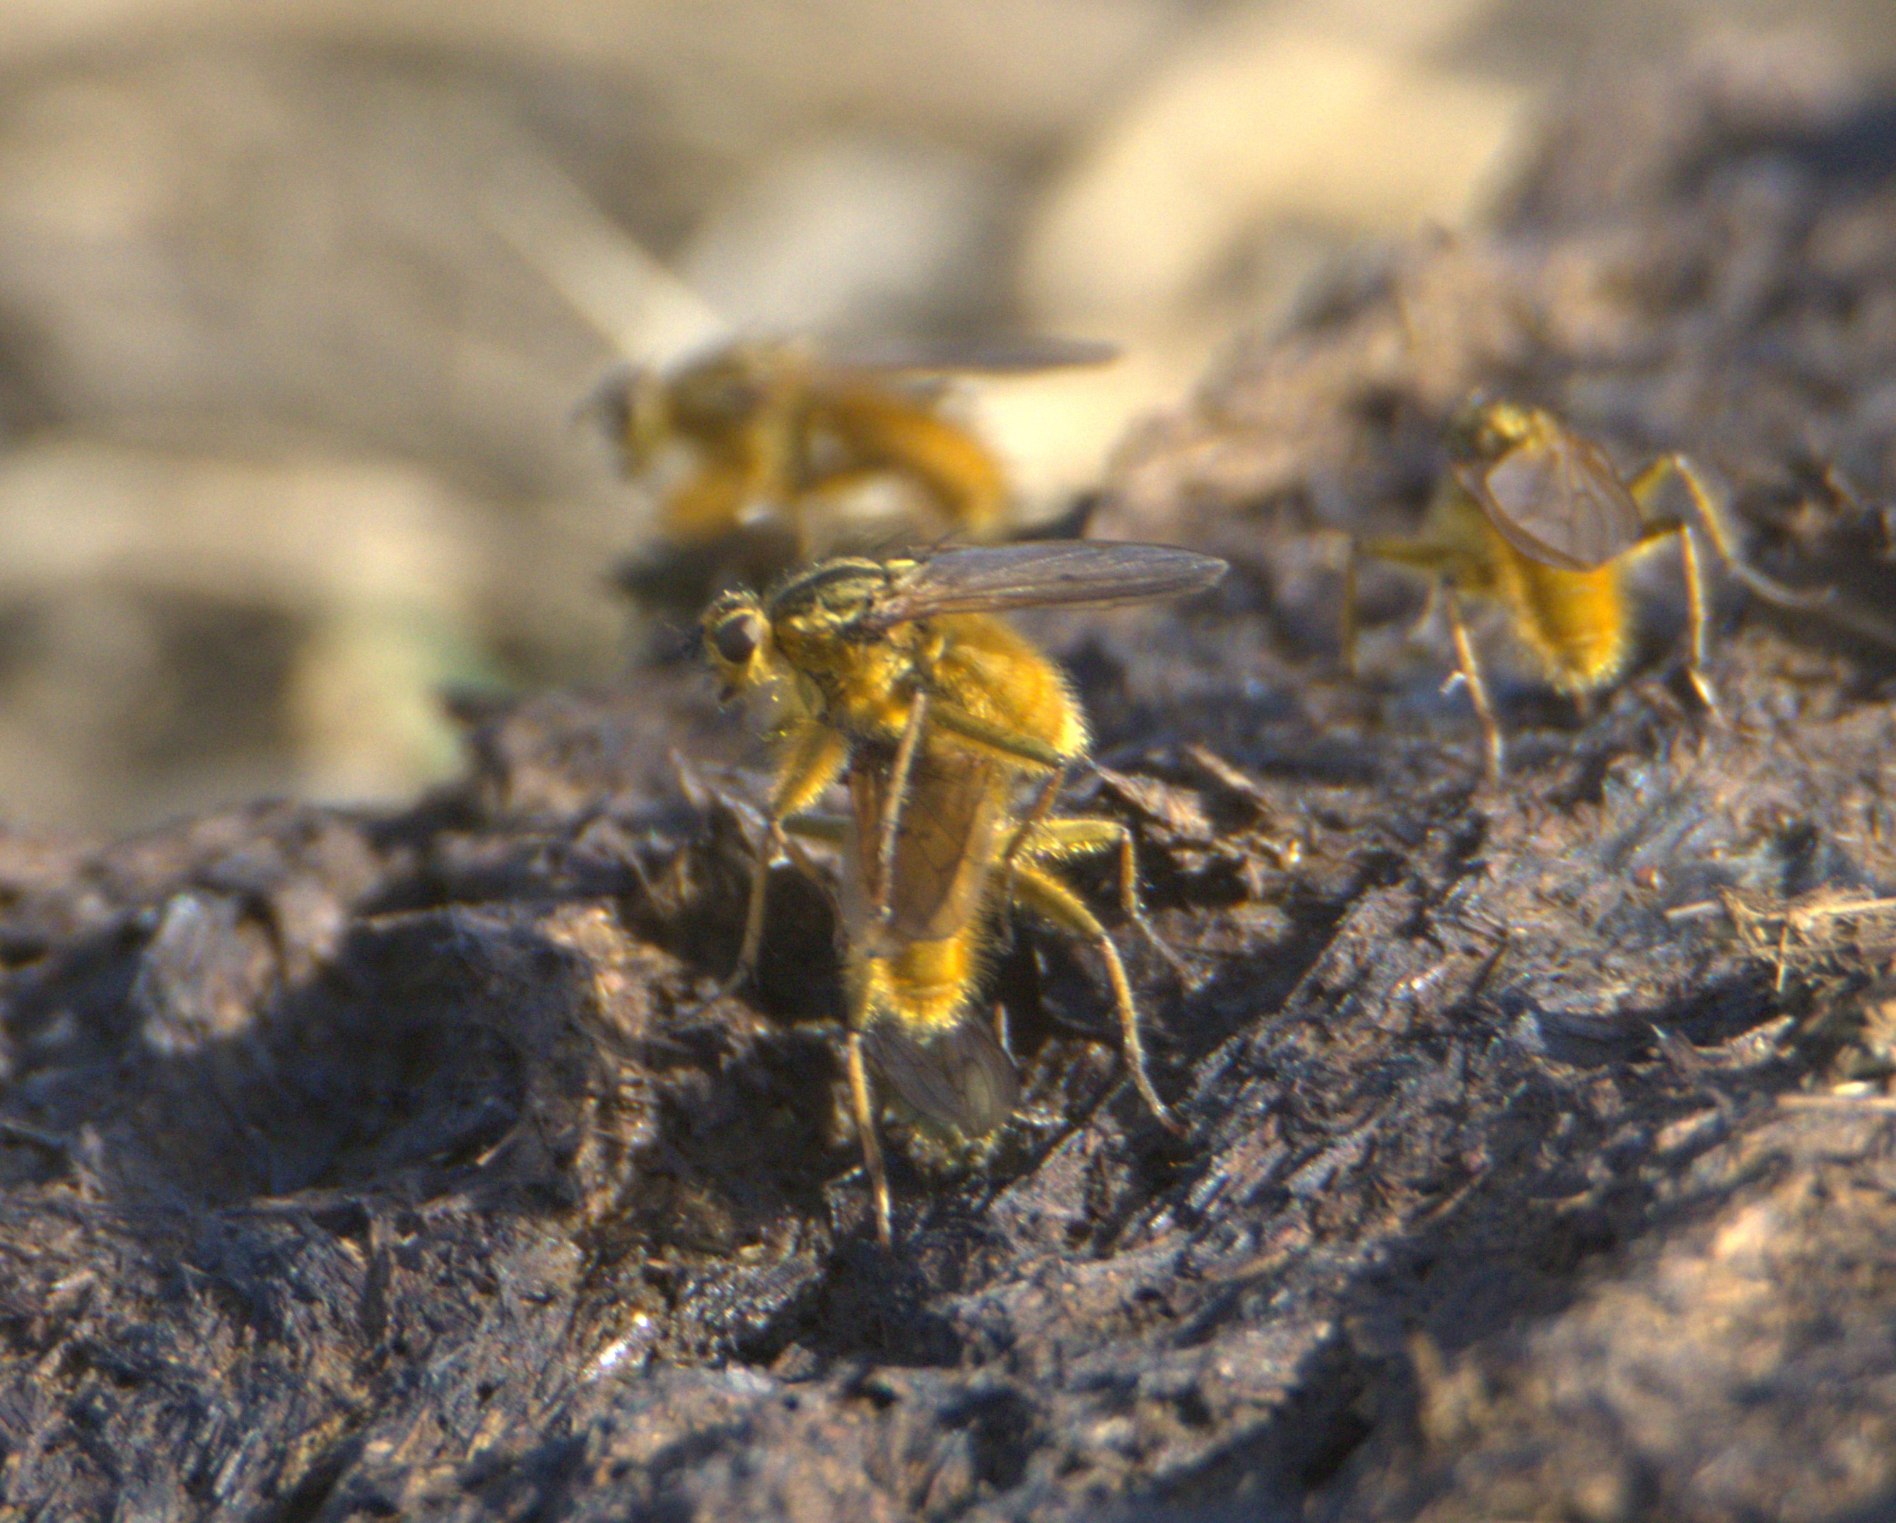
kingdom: Animalia
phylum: Arthropoda
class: Insecta
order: Diptera
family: Scathophagidae
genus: Scathophaga
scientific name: Scathophaga stercoraria
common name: Almindelig gødningsflue
